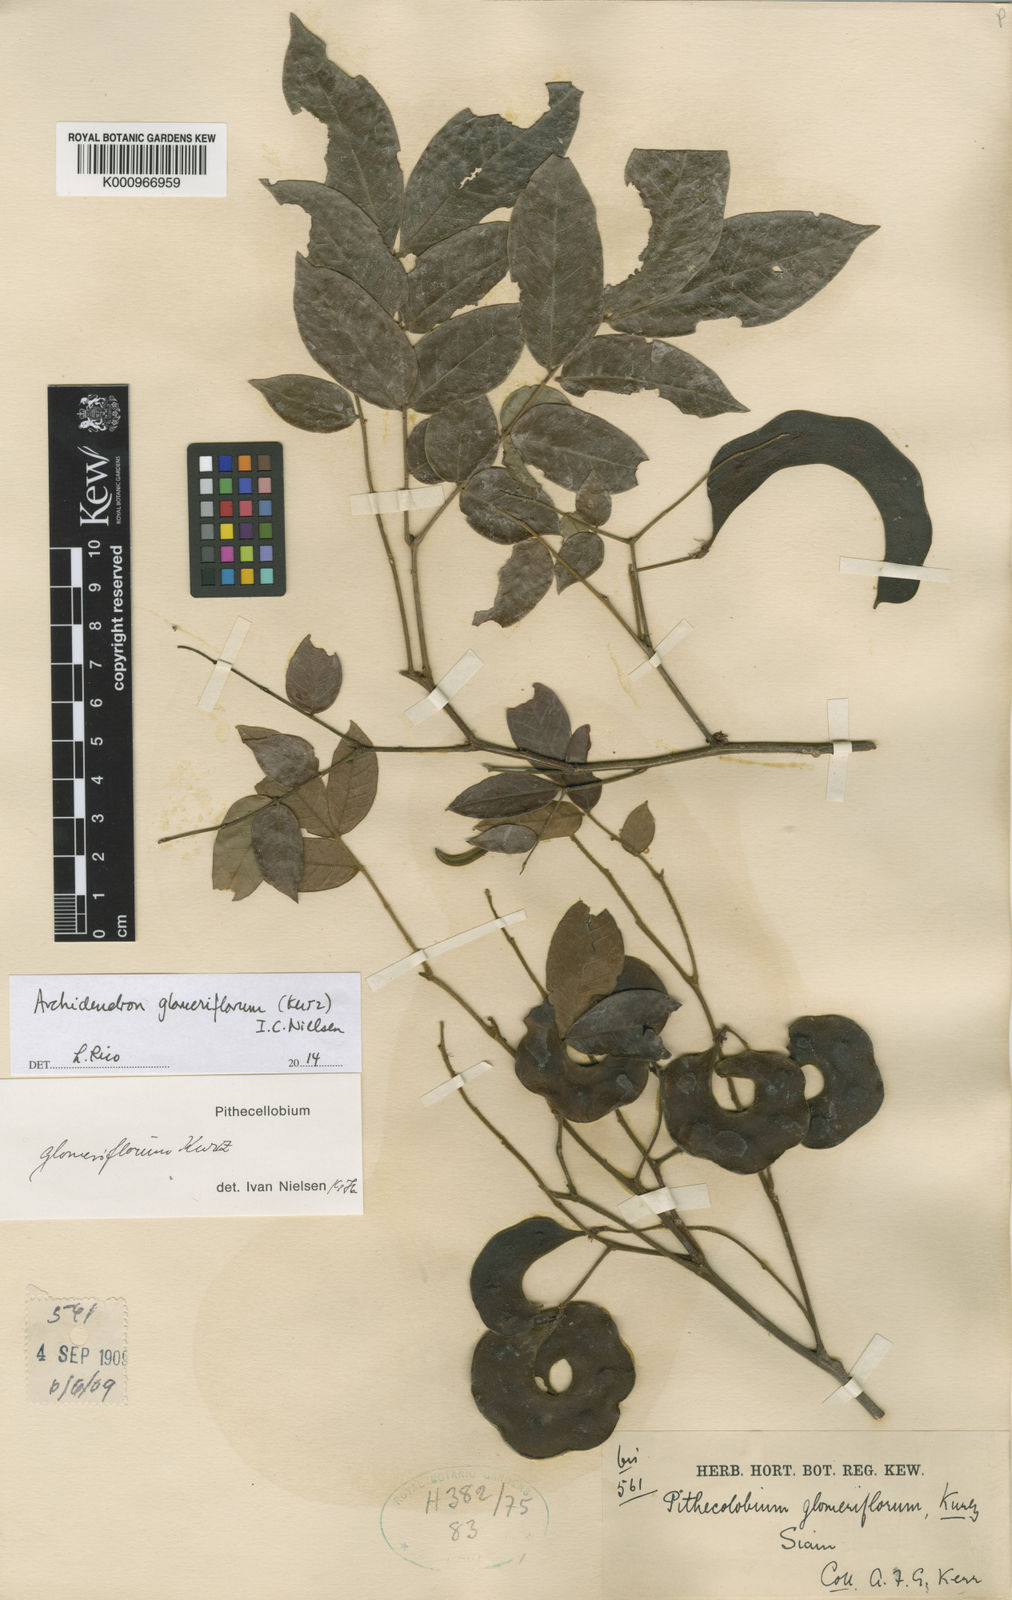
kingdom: Plantae
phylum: Tracheophyta
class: Magnoliopsida
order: Fabales
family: Fabaceae
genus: Archidendron
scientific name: Archidendron glomeriflorum
